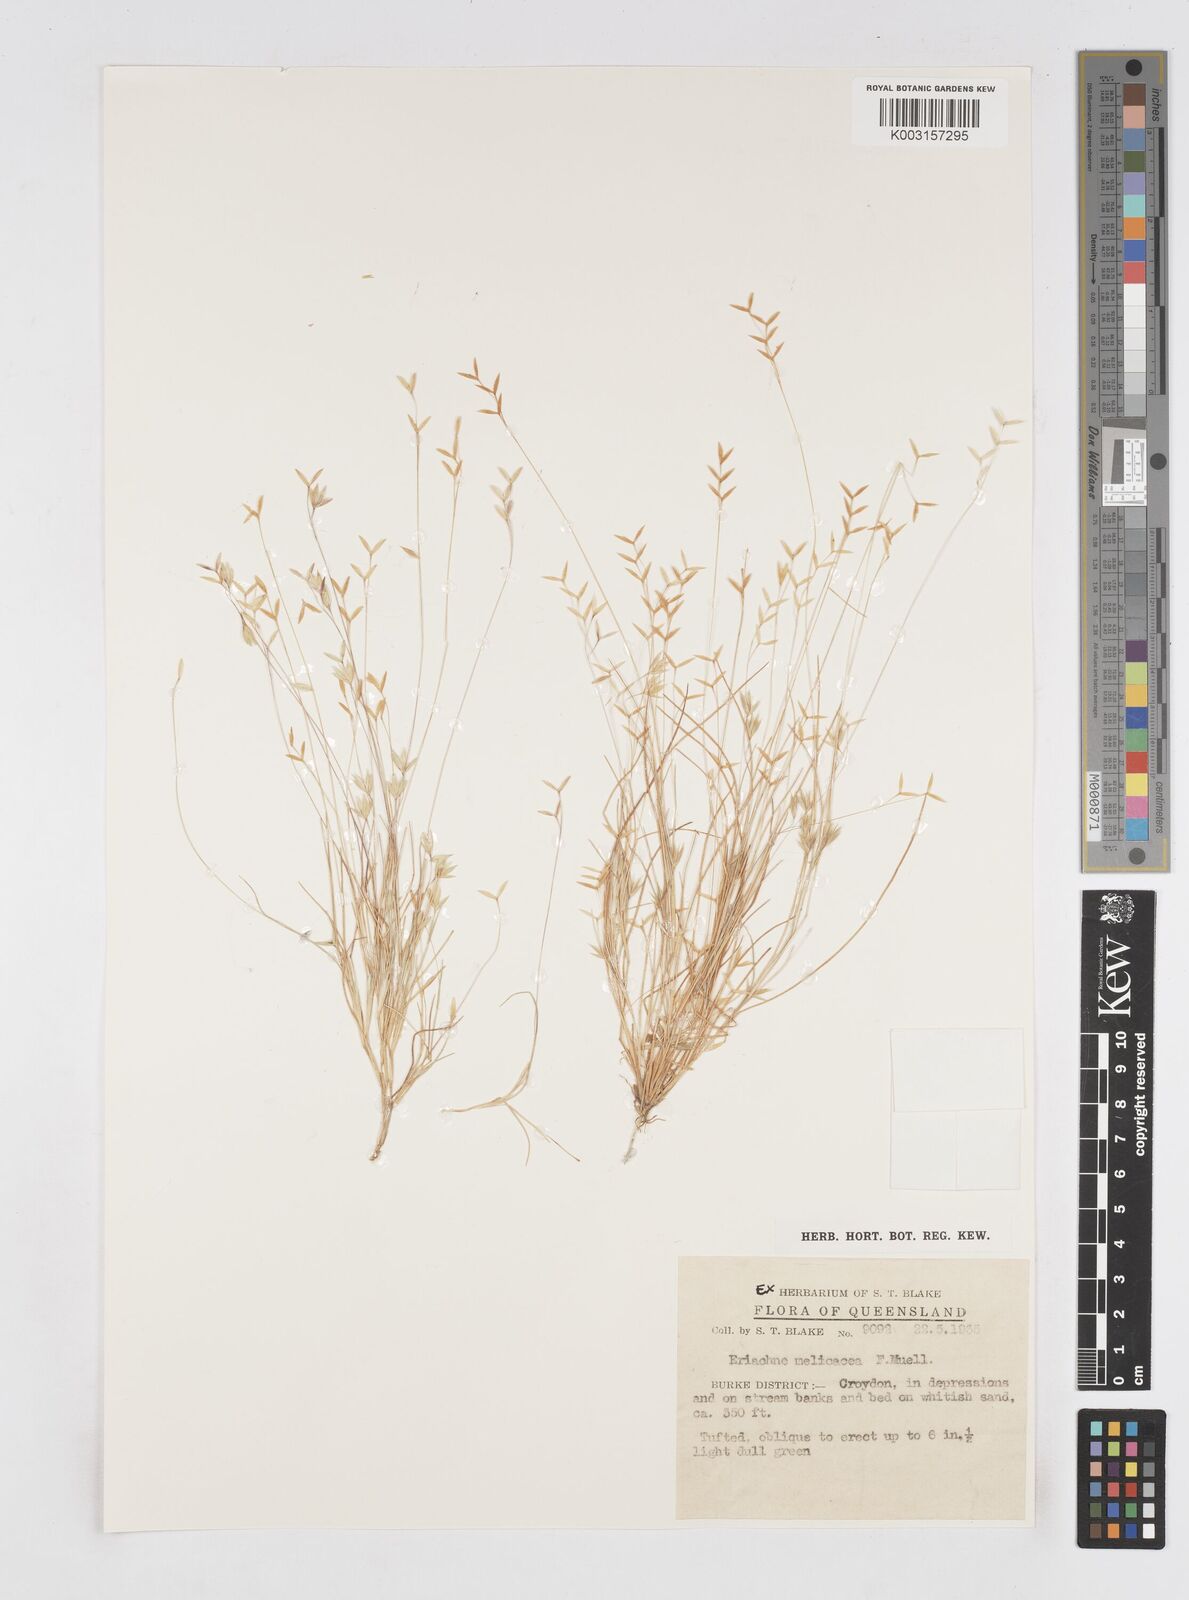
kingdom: Plantae
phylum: Tracheophyta
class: Liliopsida
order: Poales
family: Poaceae
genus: Eriachne
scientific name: Eriachne melicacea
